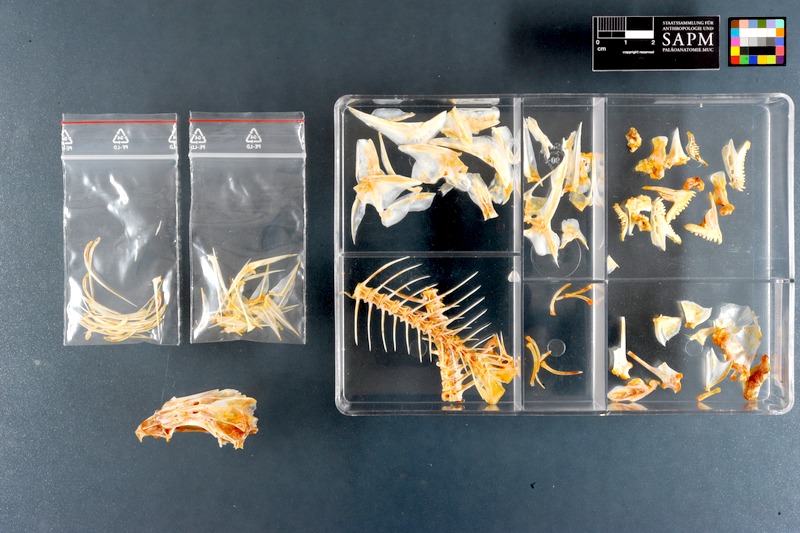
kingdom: Animalia
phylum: Chordata
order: Perciformes
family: Lethrinidae
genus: Lethrinus
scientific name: Lethrinus lentjan
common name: Redspot emperor
